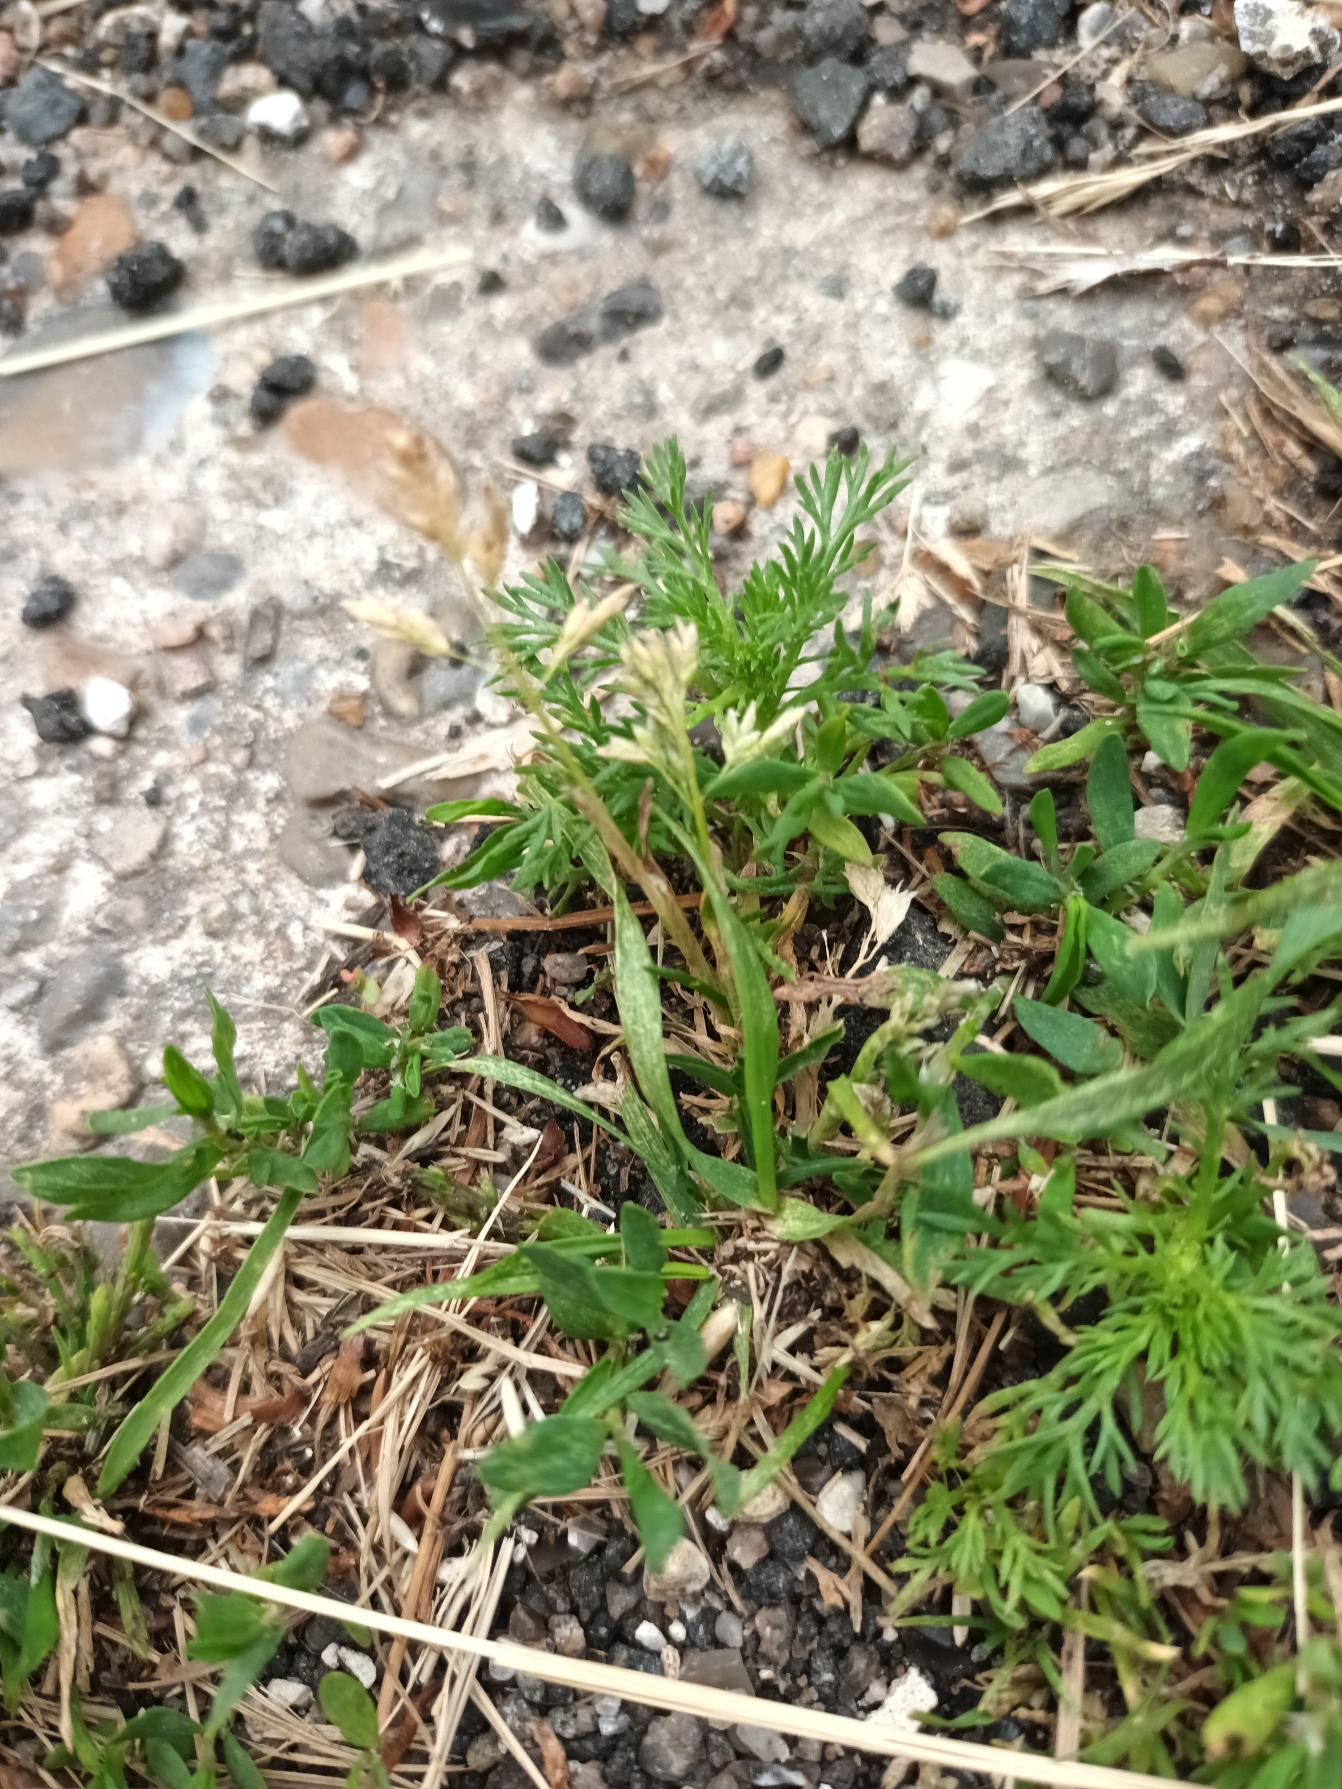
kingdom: Plantae
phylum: Tracheophyta
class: Liliopsida
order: Poales
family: Poaceae
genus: Poa
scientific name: Poa annua
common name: Enårig rapgræs
